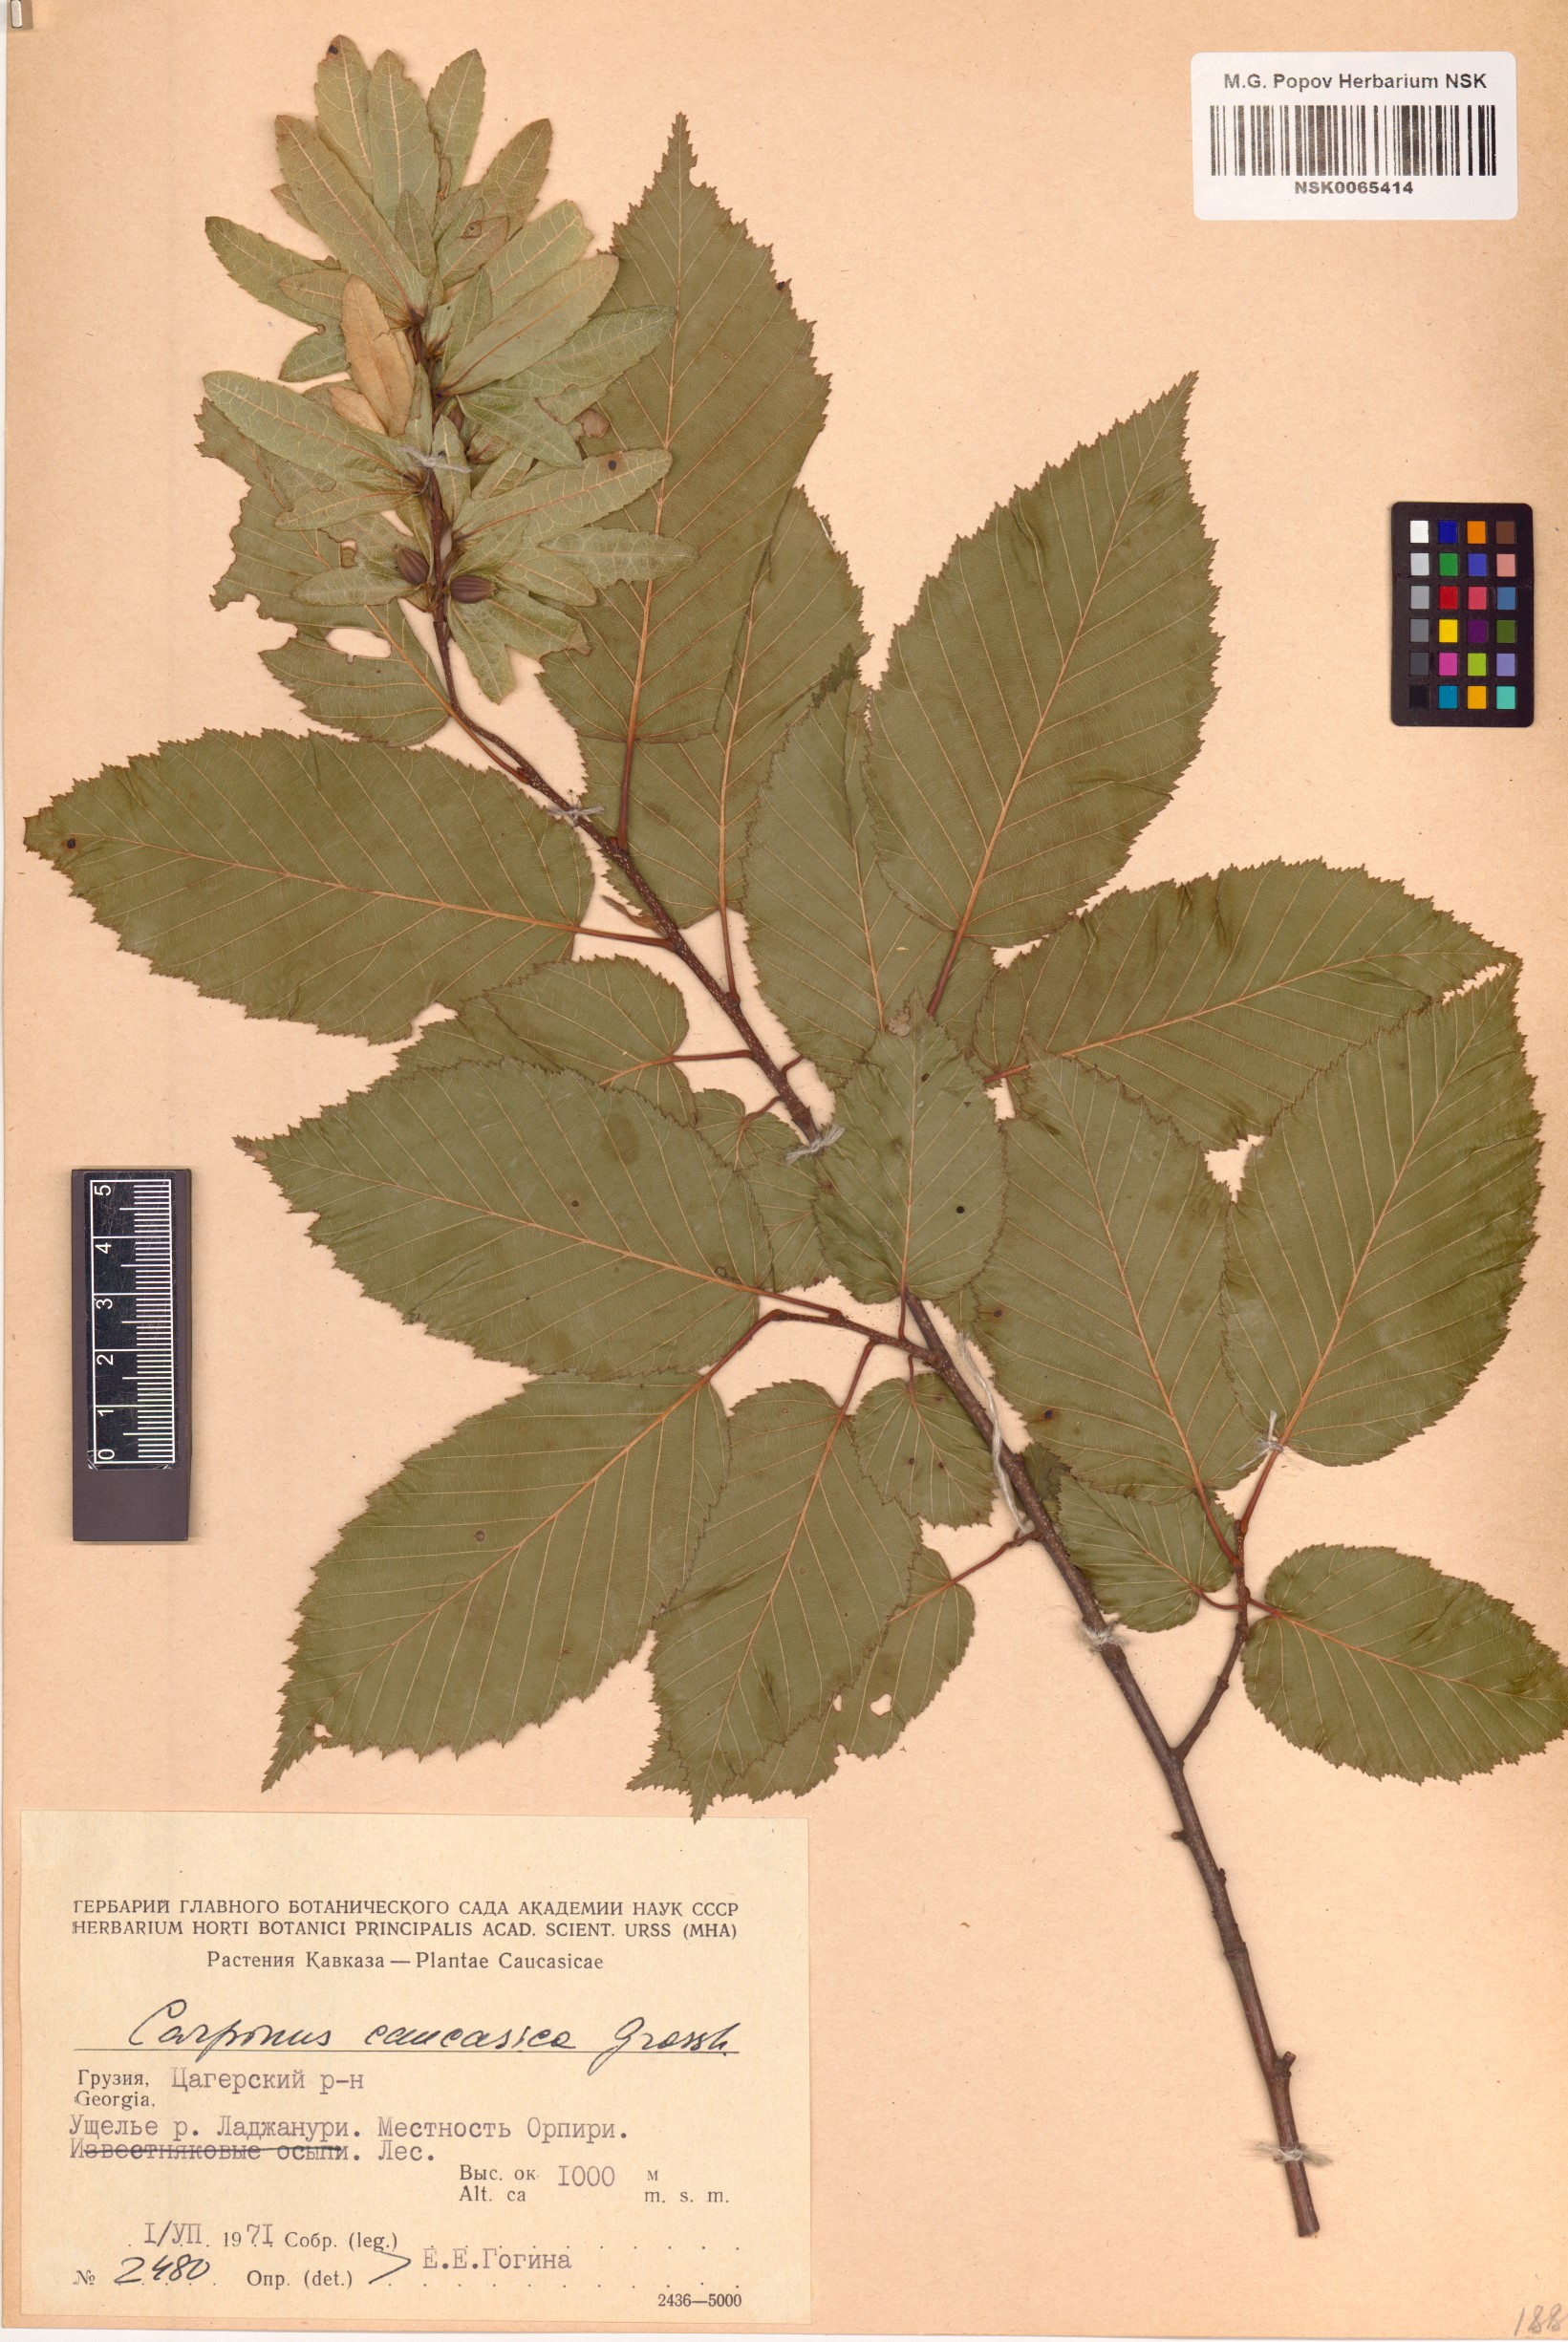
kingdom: Plantae
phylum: Tracheophyta
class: Magnoliopsida
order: Fagales
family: Betulaceae
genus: Carpinus
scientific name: Carpinus betulus
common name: Hornbeam
